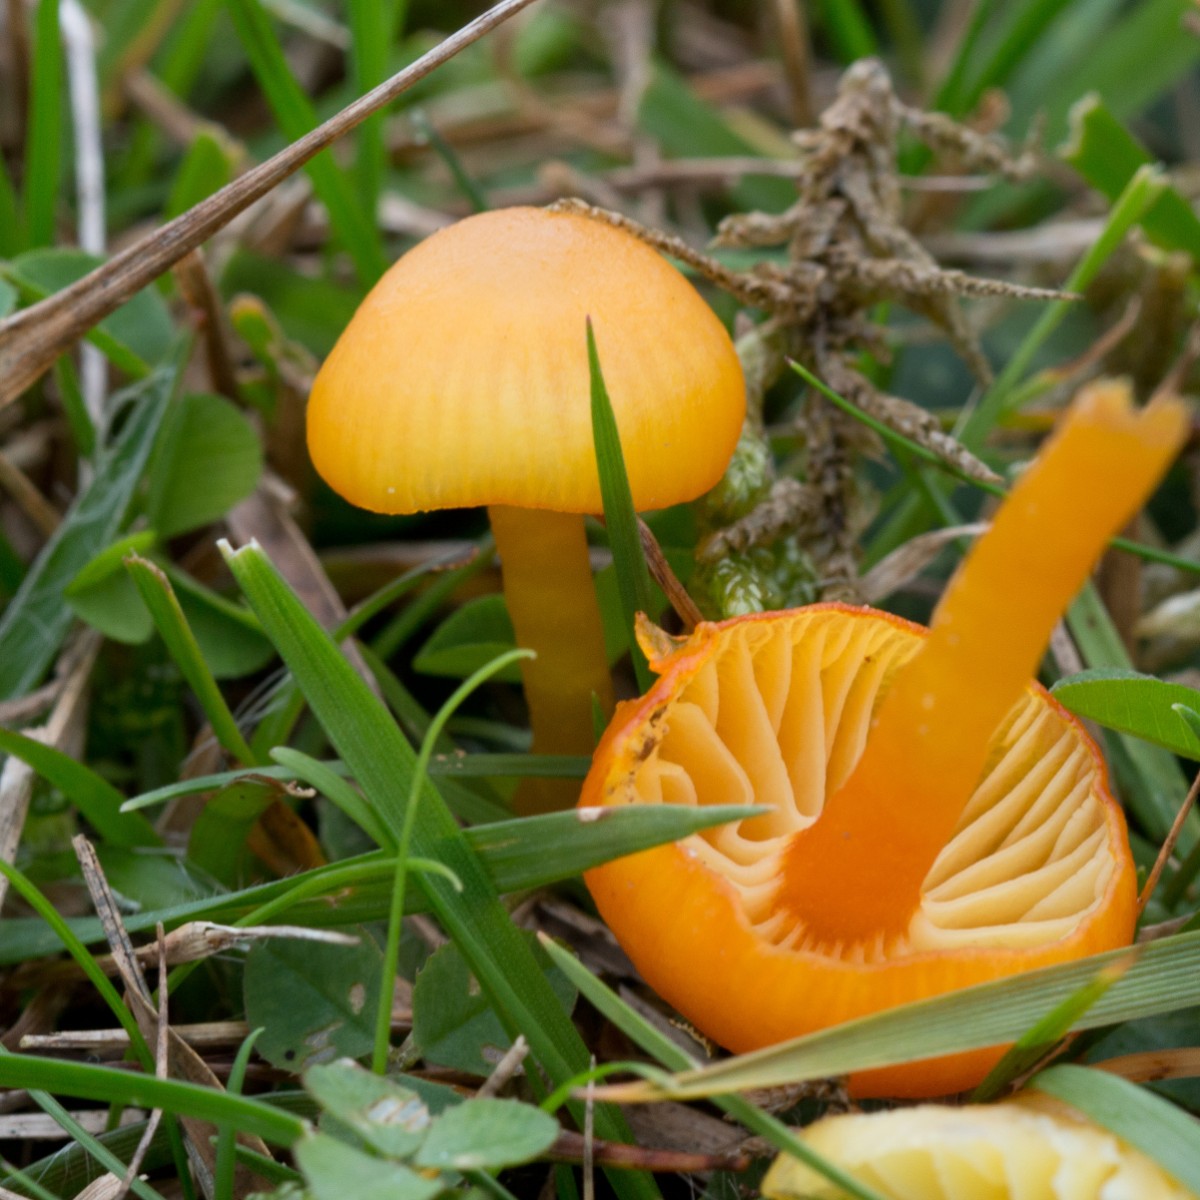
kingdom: Fungi
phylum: Basidiomycota
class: Agaricomycetes
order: Agaricales
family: Hygrophoraceae
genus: Hygrocybe
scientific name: Hygrocybe ceracea
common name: voksgul vokshat
